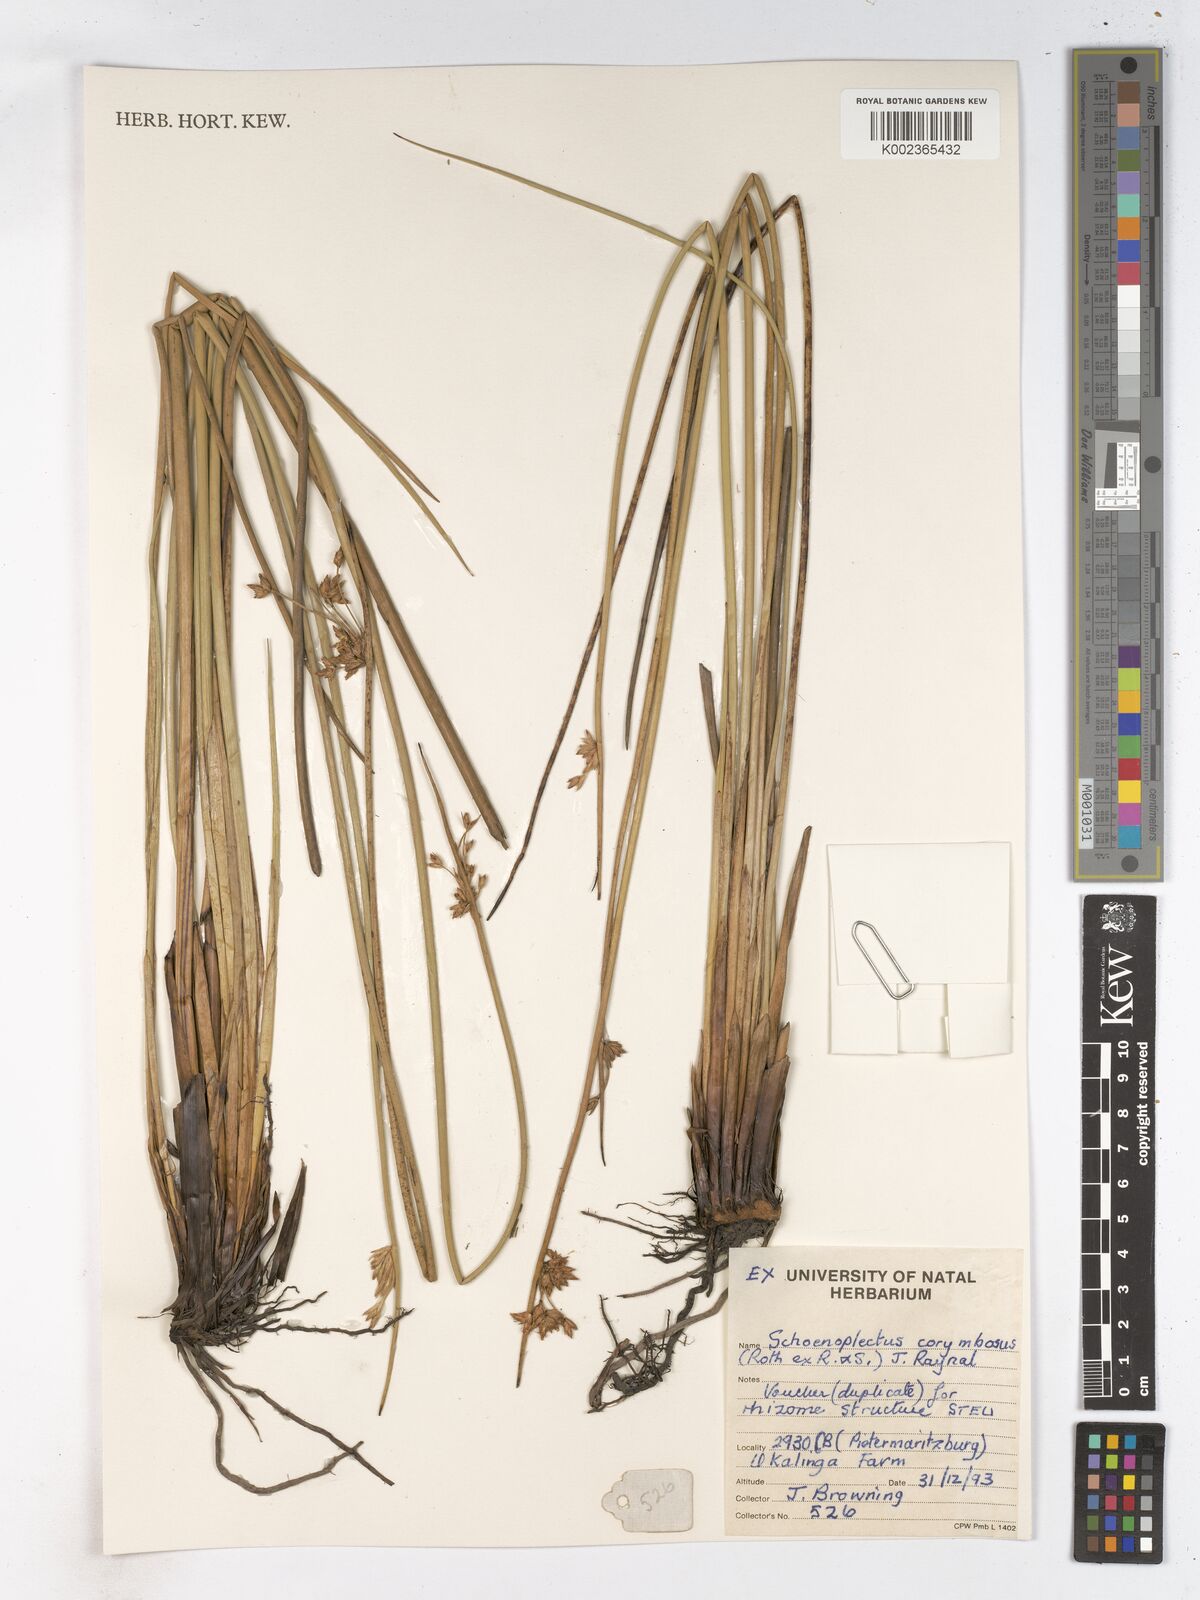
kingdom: Plantae
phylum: Tracheophyta
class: Liliopsida
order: Poales
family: Cyperaceae
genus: Schoenoplectiella
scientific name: Schoenoplectiella brachyceras
